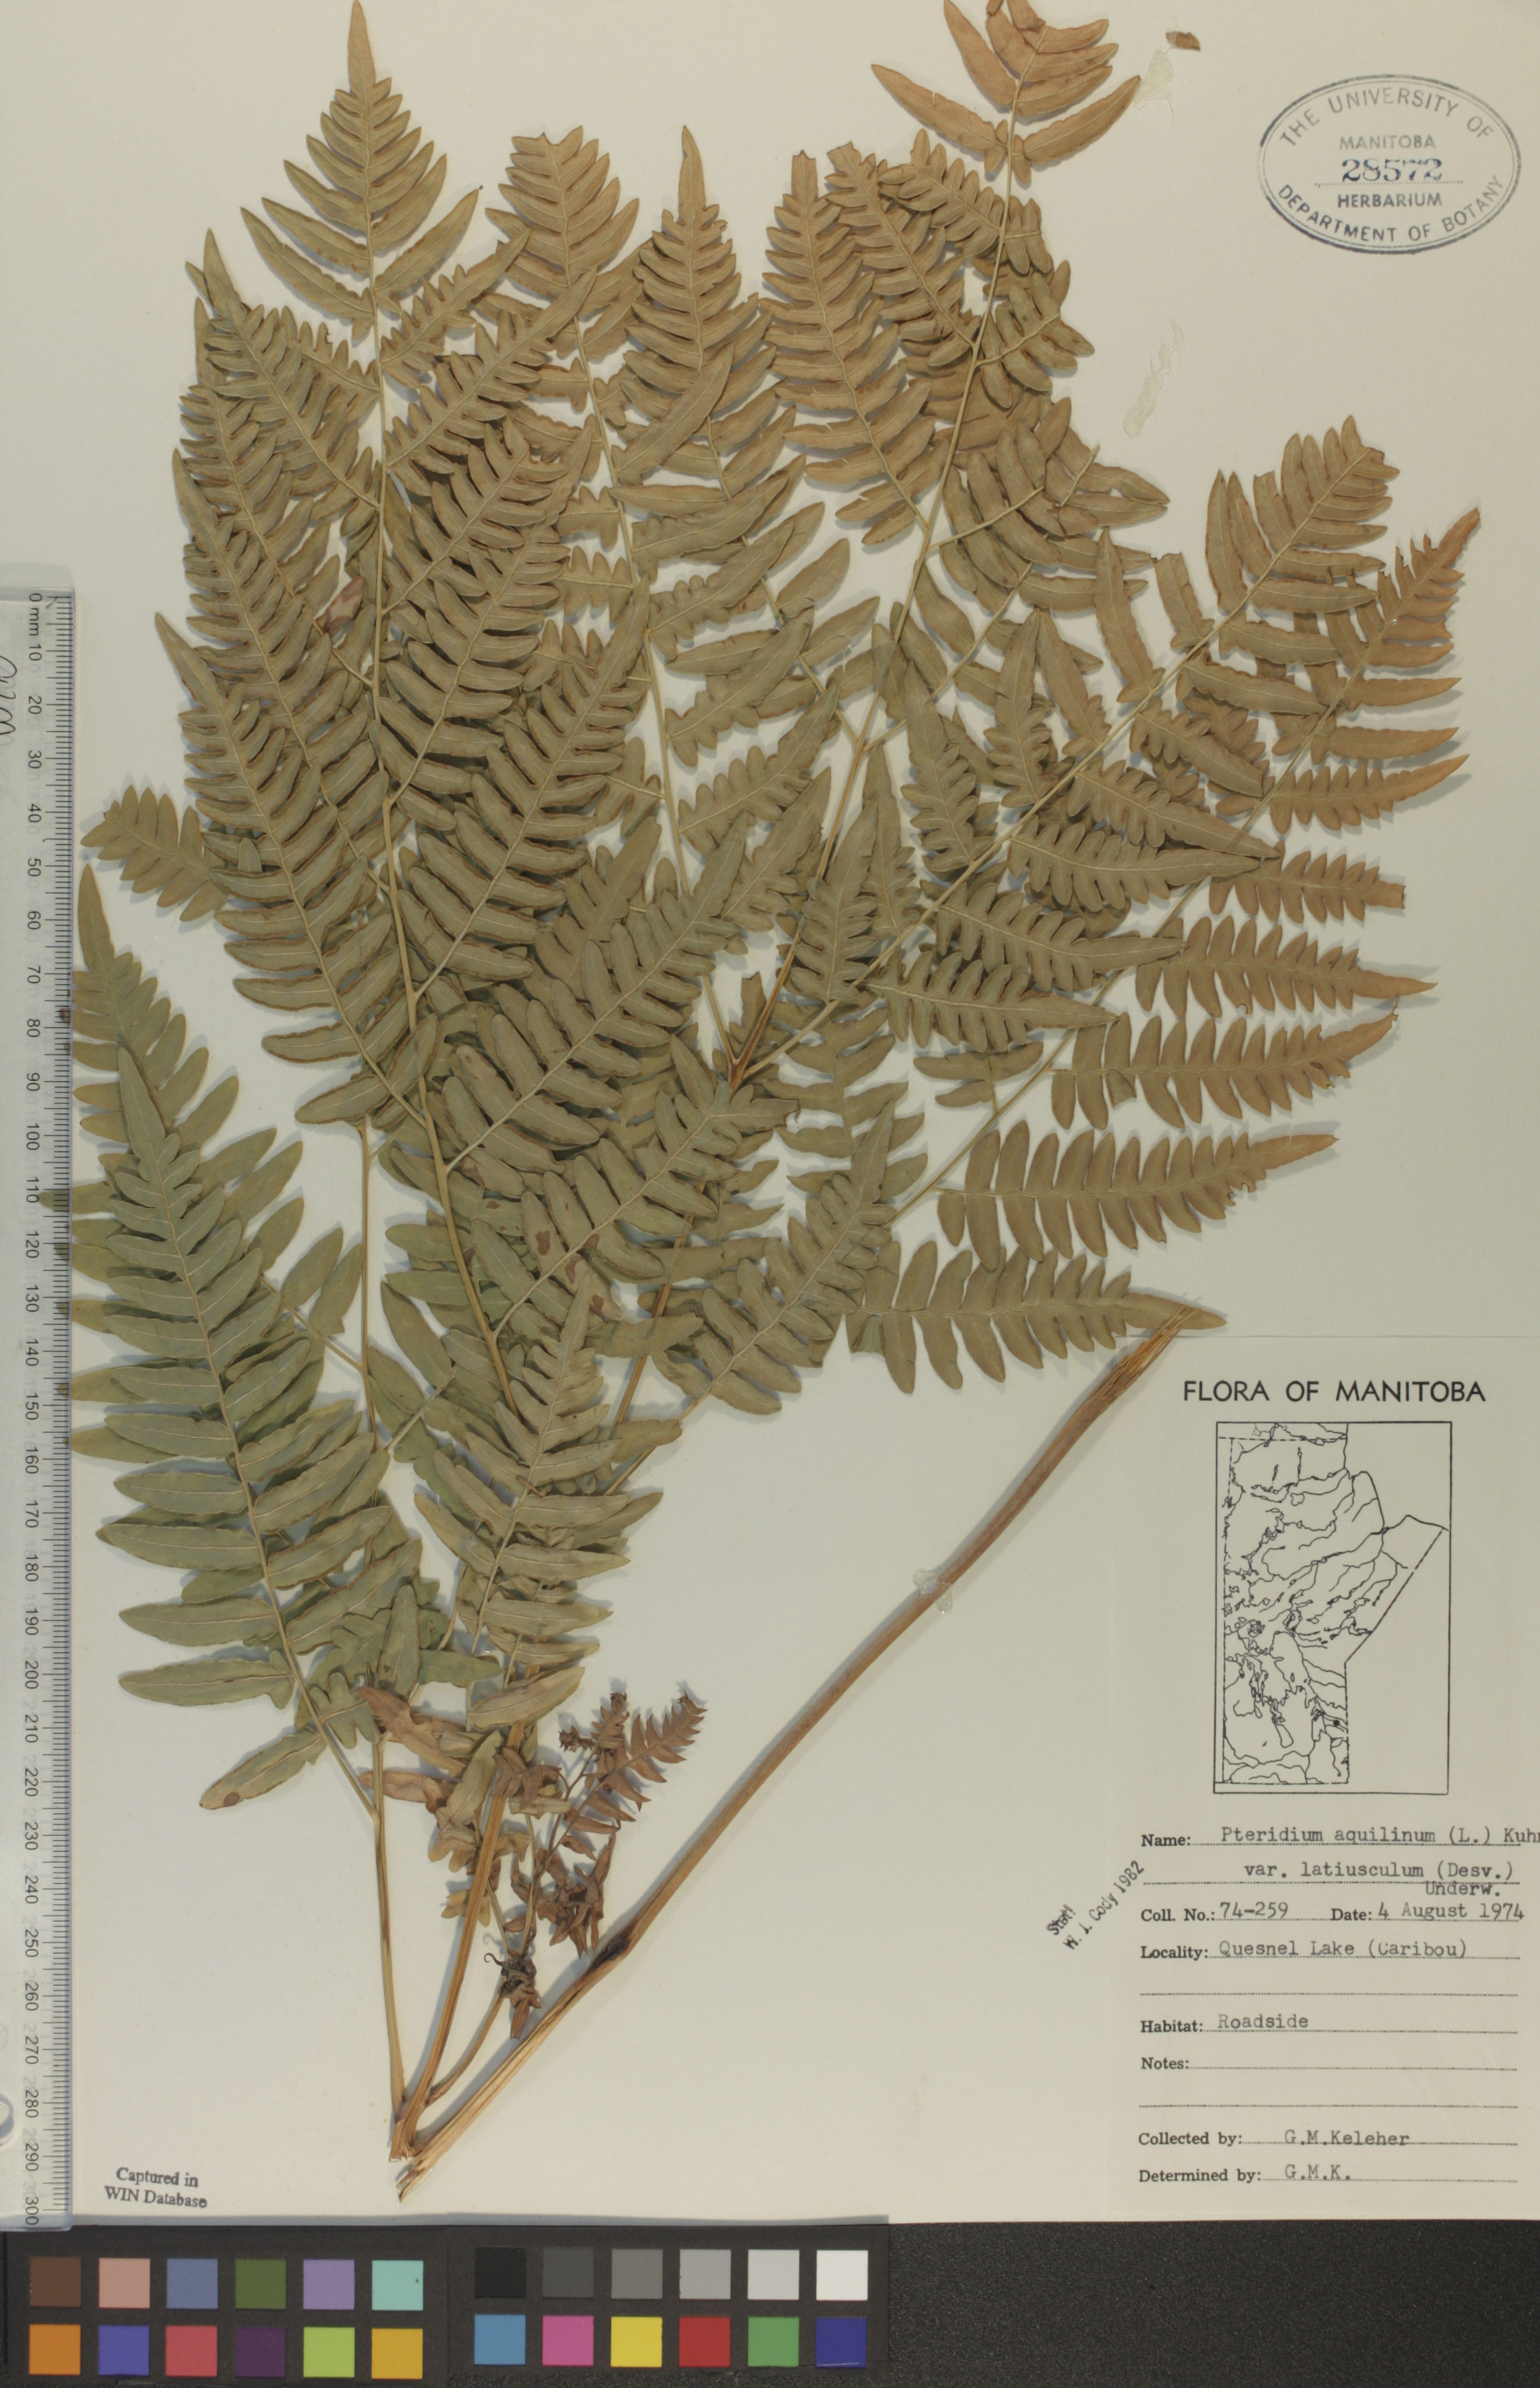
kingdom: Plantae
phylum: Tracheophyta
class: Polypodiopsida
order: Polypodiales
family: Dennstaedtiaceae
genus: Pteridium
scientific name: Pteridium aquilinum
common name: Bracken
